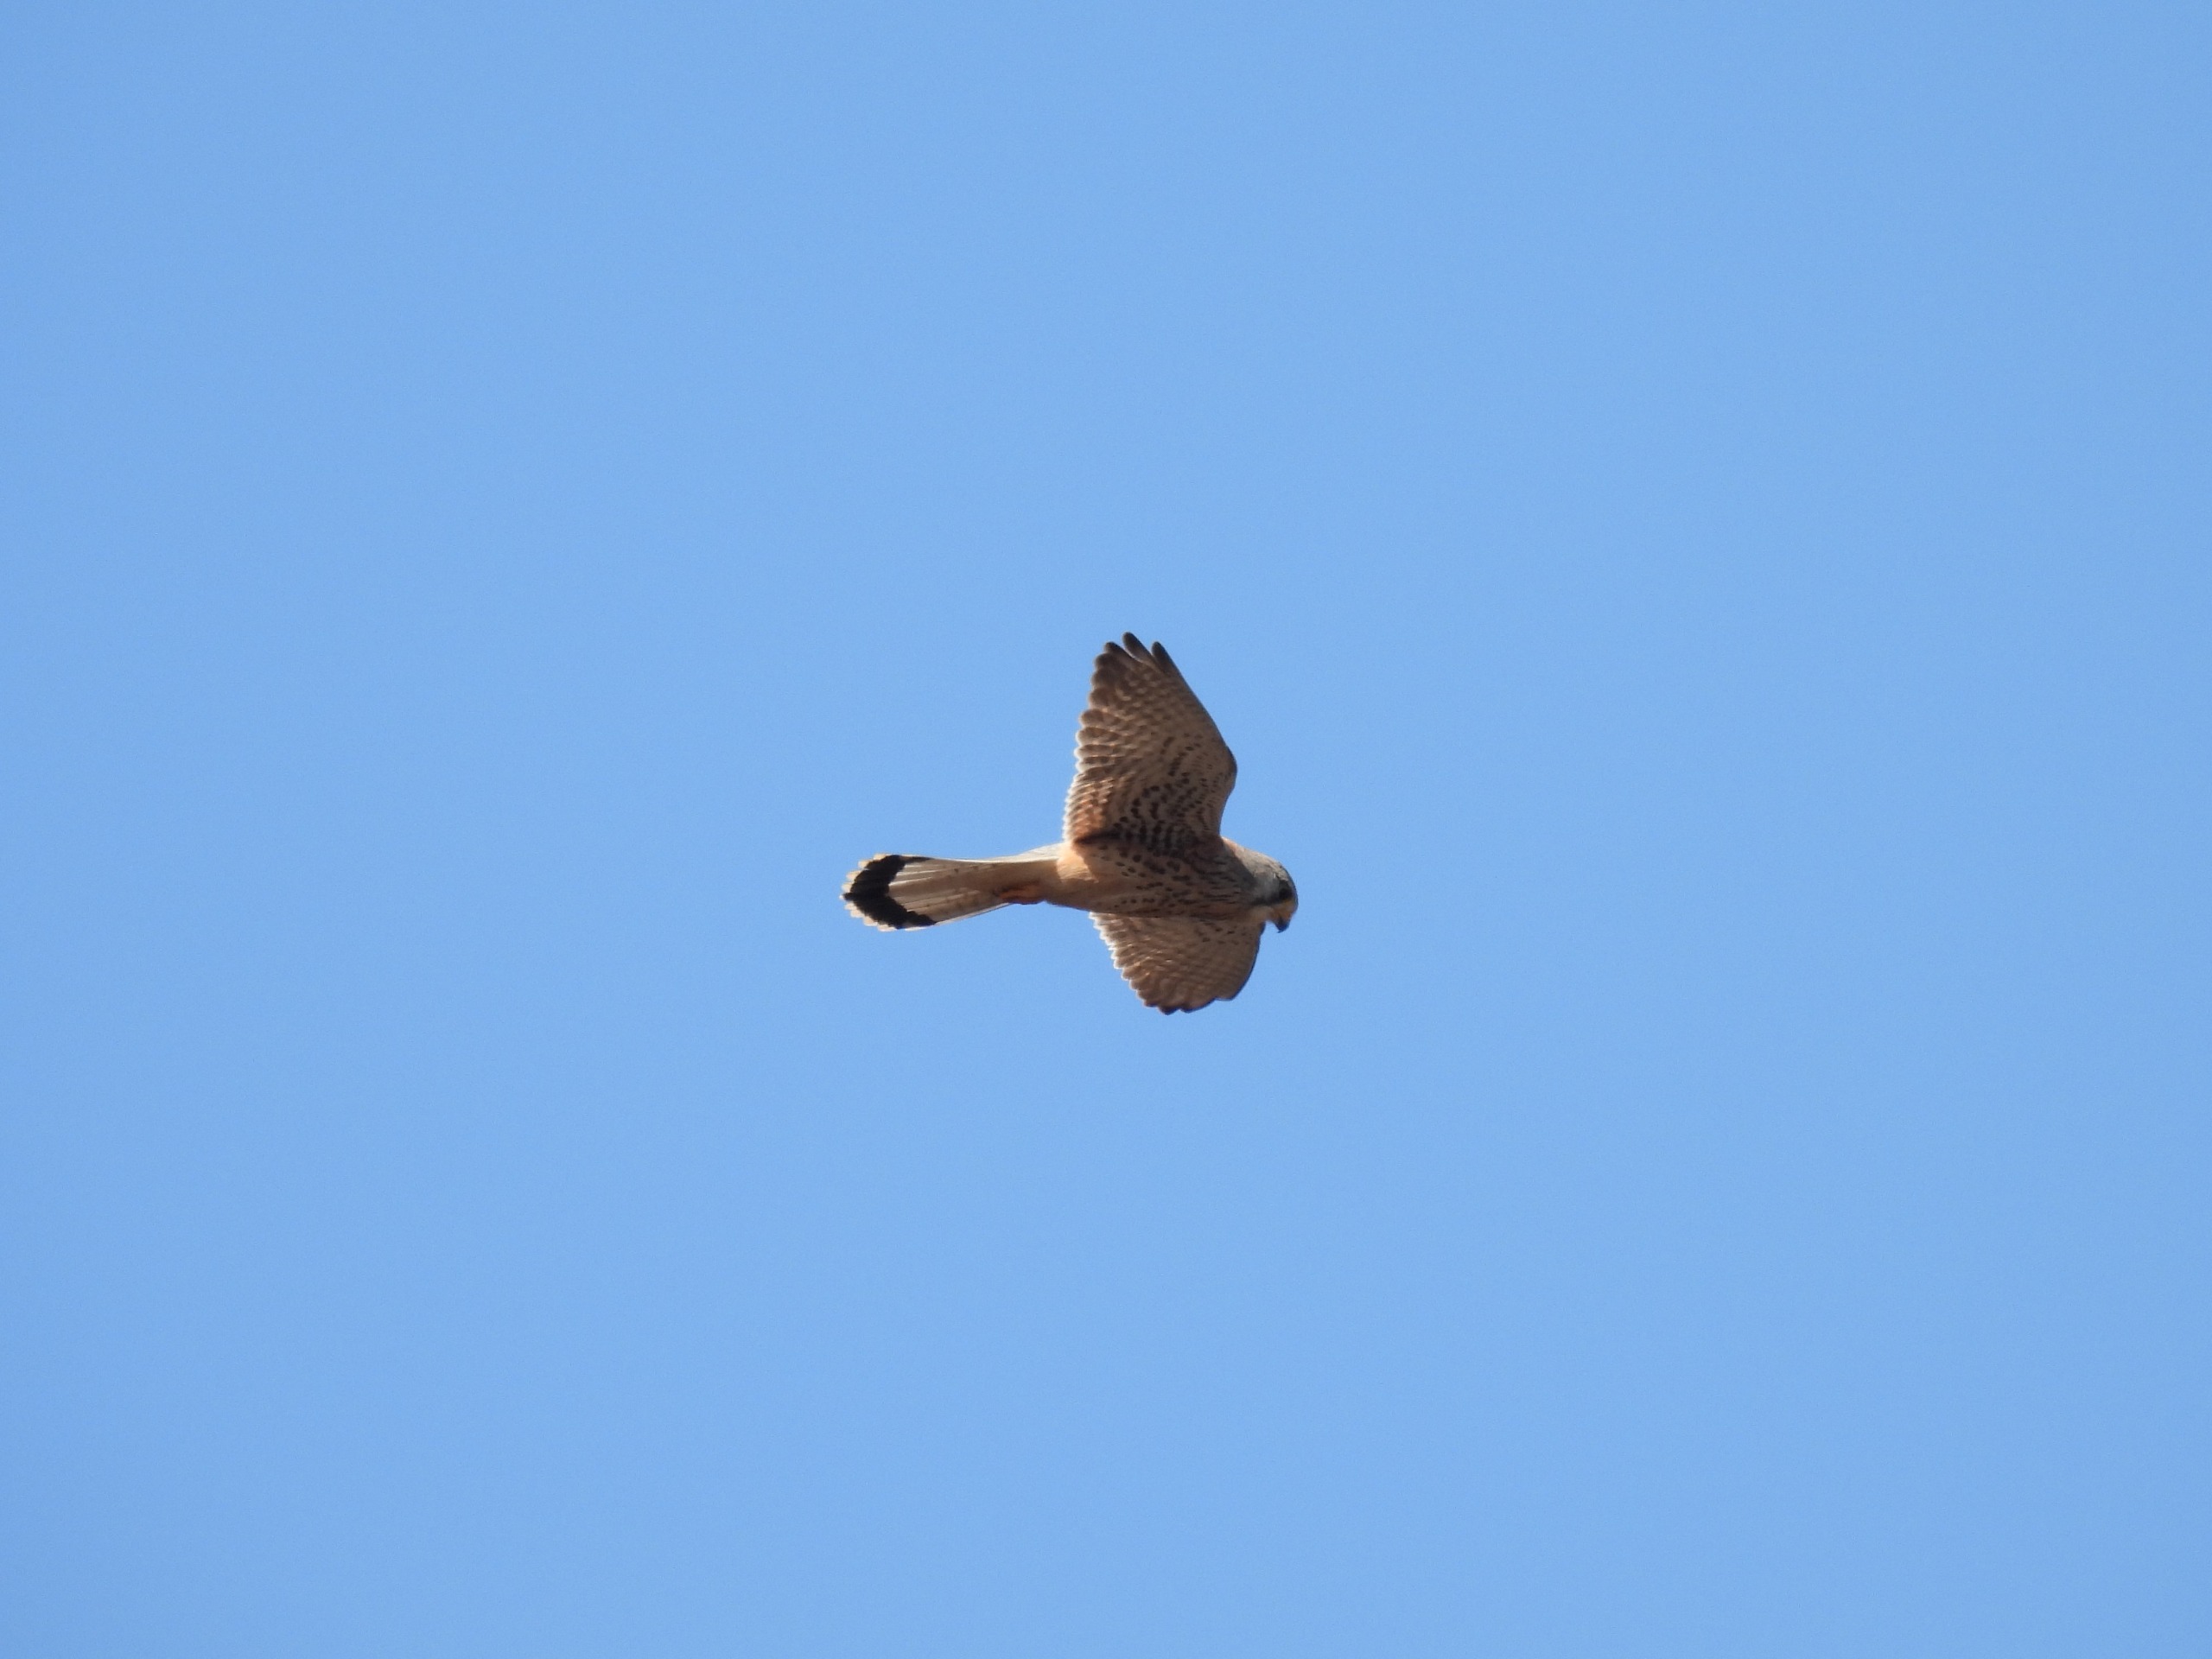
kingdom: Animalia
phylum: Chordata
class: Aves
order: Falconiformes
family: Falconidae
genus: Falco
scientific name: Falco tinnunculus
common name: Tårnfalk
